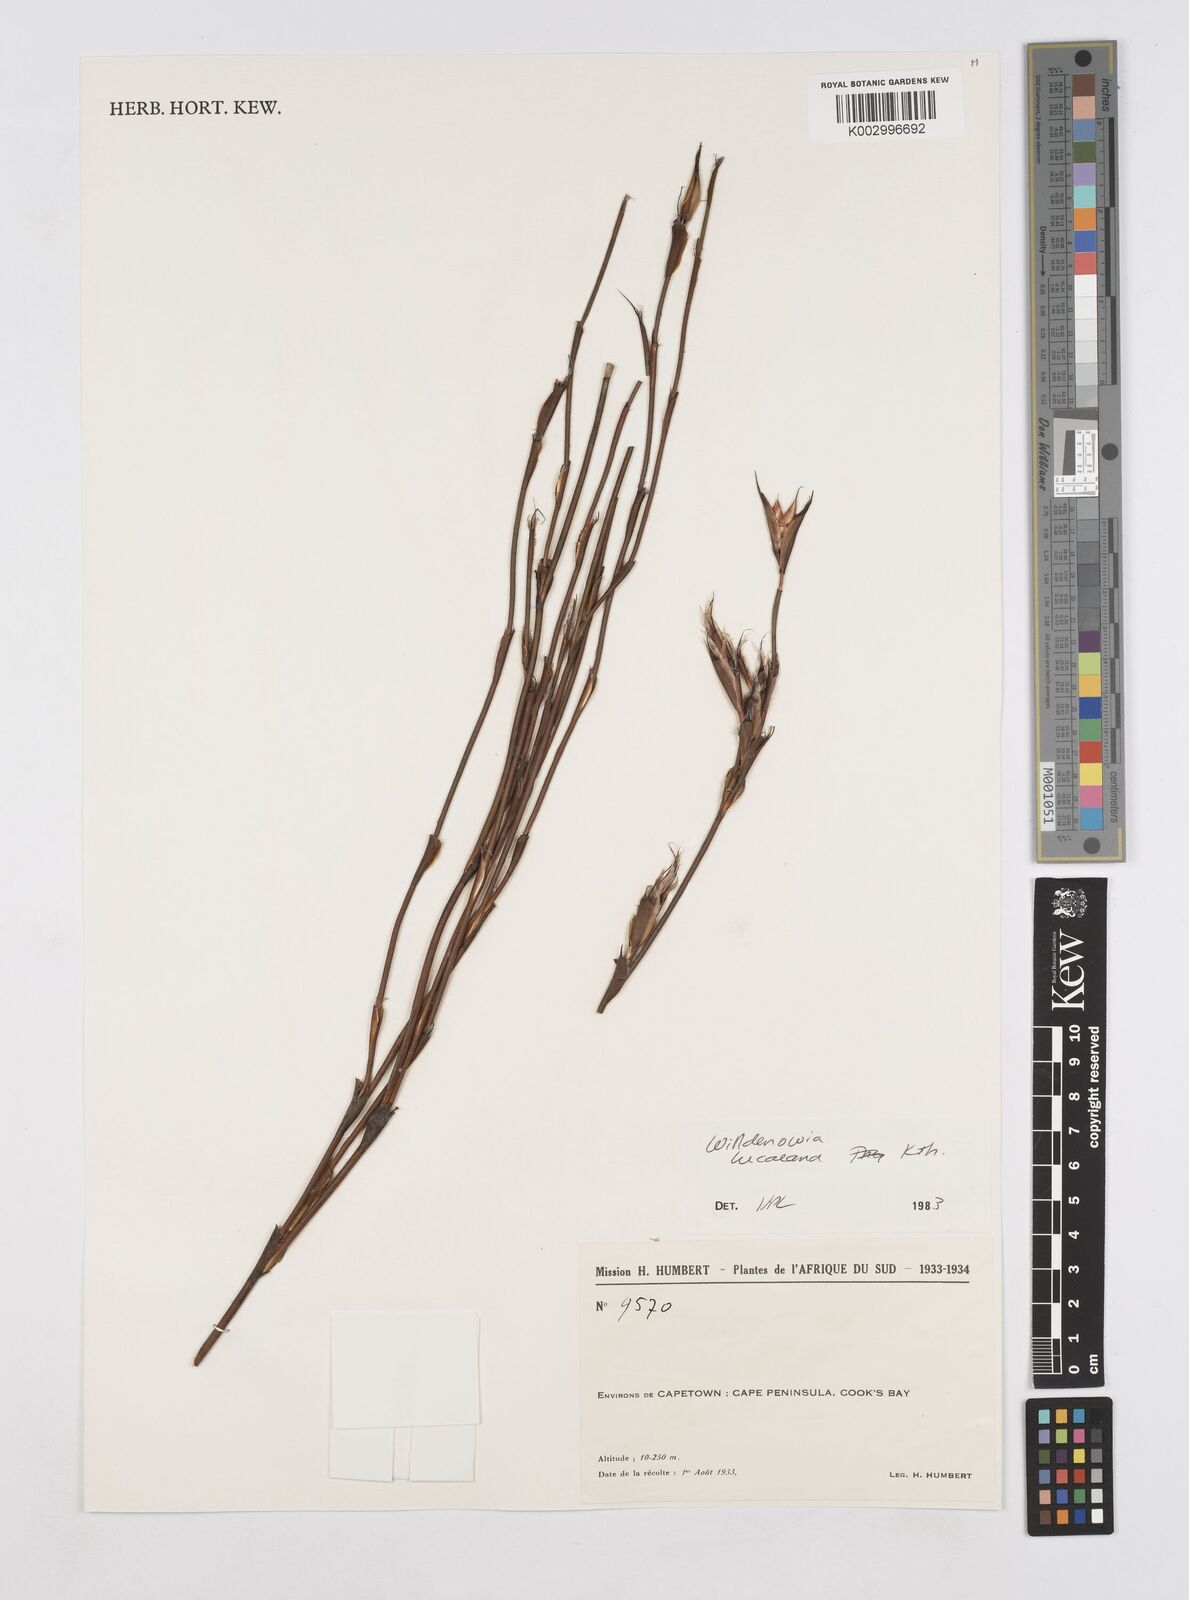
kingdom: Plantae
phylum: Tracheophyta
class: Liliopsida
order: Poales
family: Restionaceae
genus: Willdenowia
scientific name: Willdenowia glomerata
